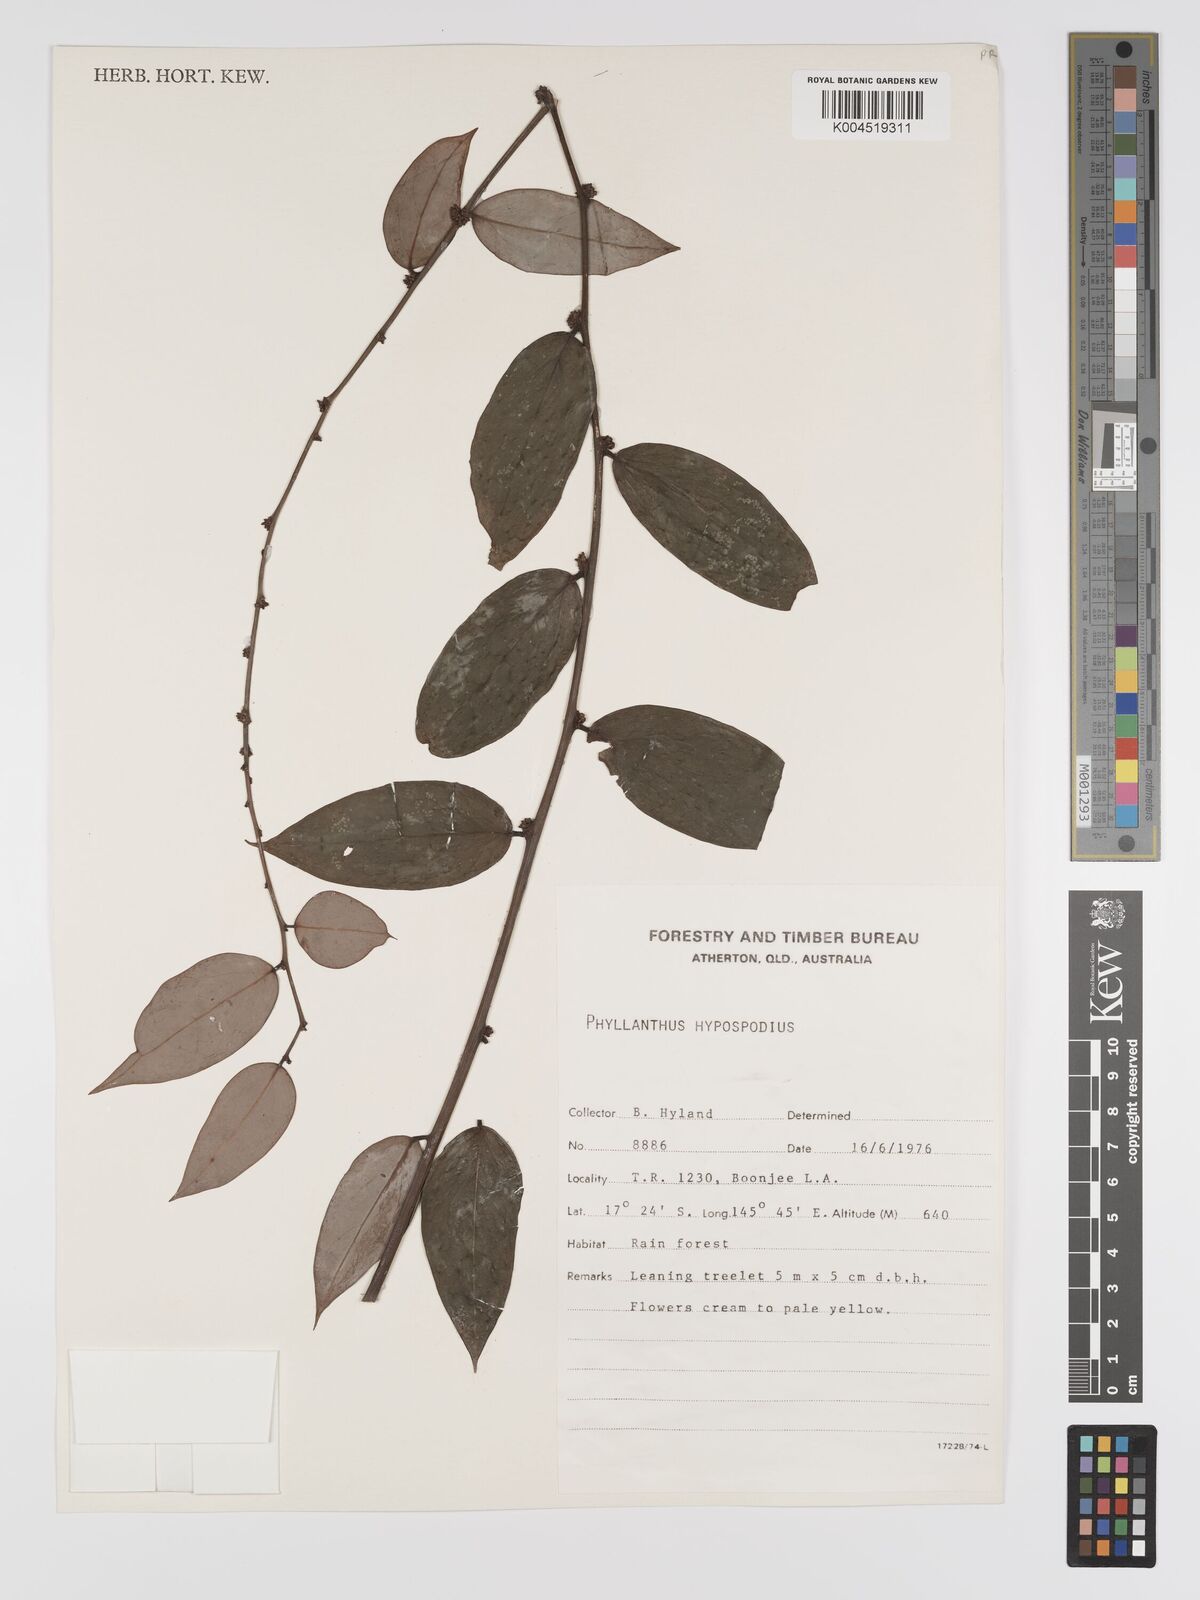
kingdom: Plantae
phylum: Tracheophyta
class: Magnoliopsida
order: Malpighiales
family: Phyllanthaceae
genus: Phyllanthus
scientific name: Phyllanthus hypospodius
